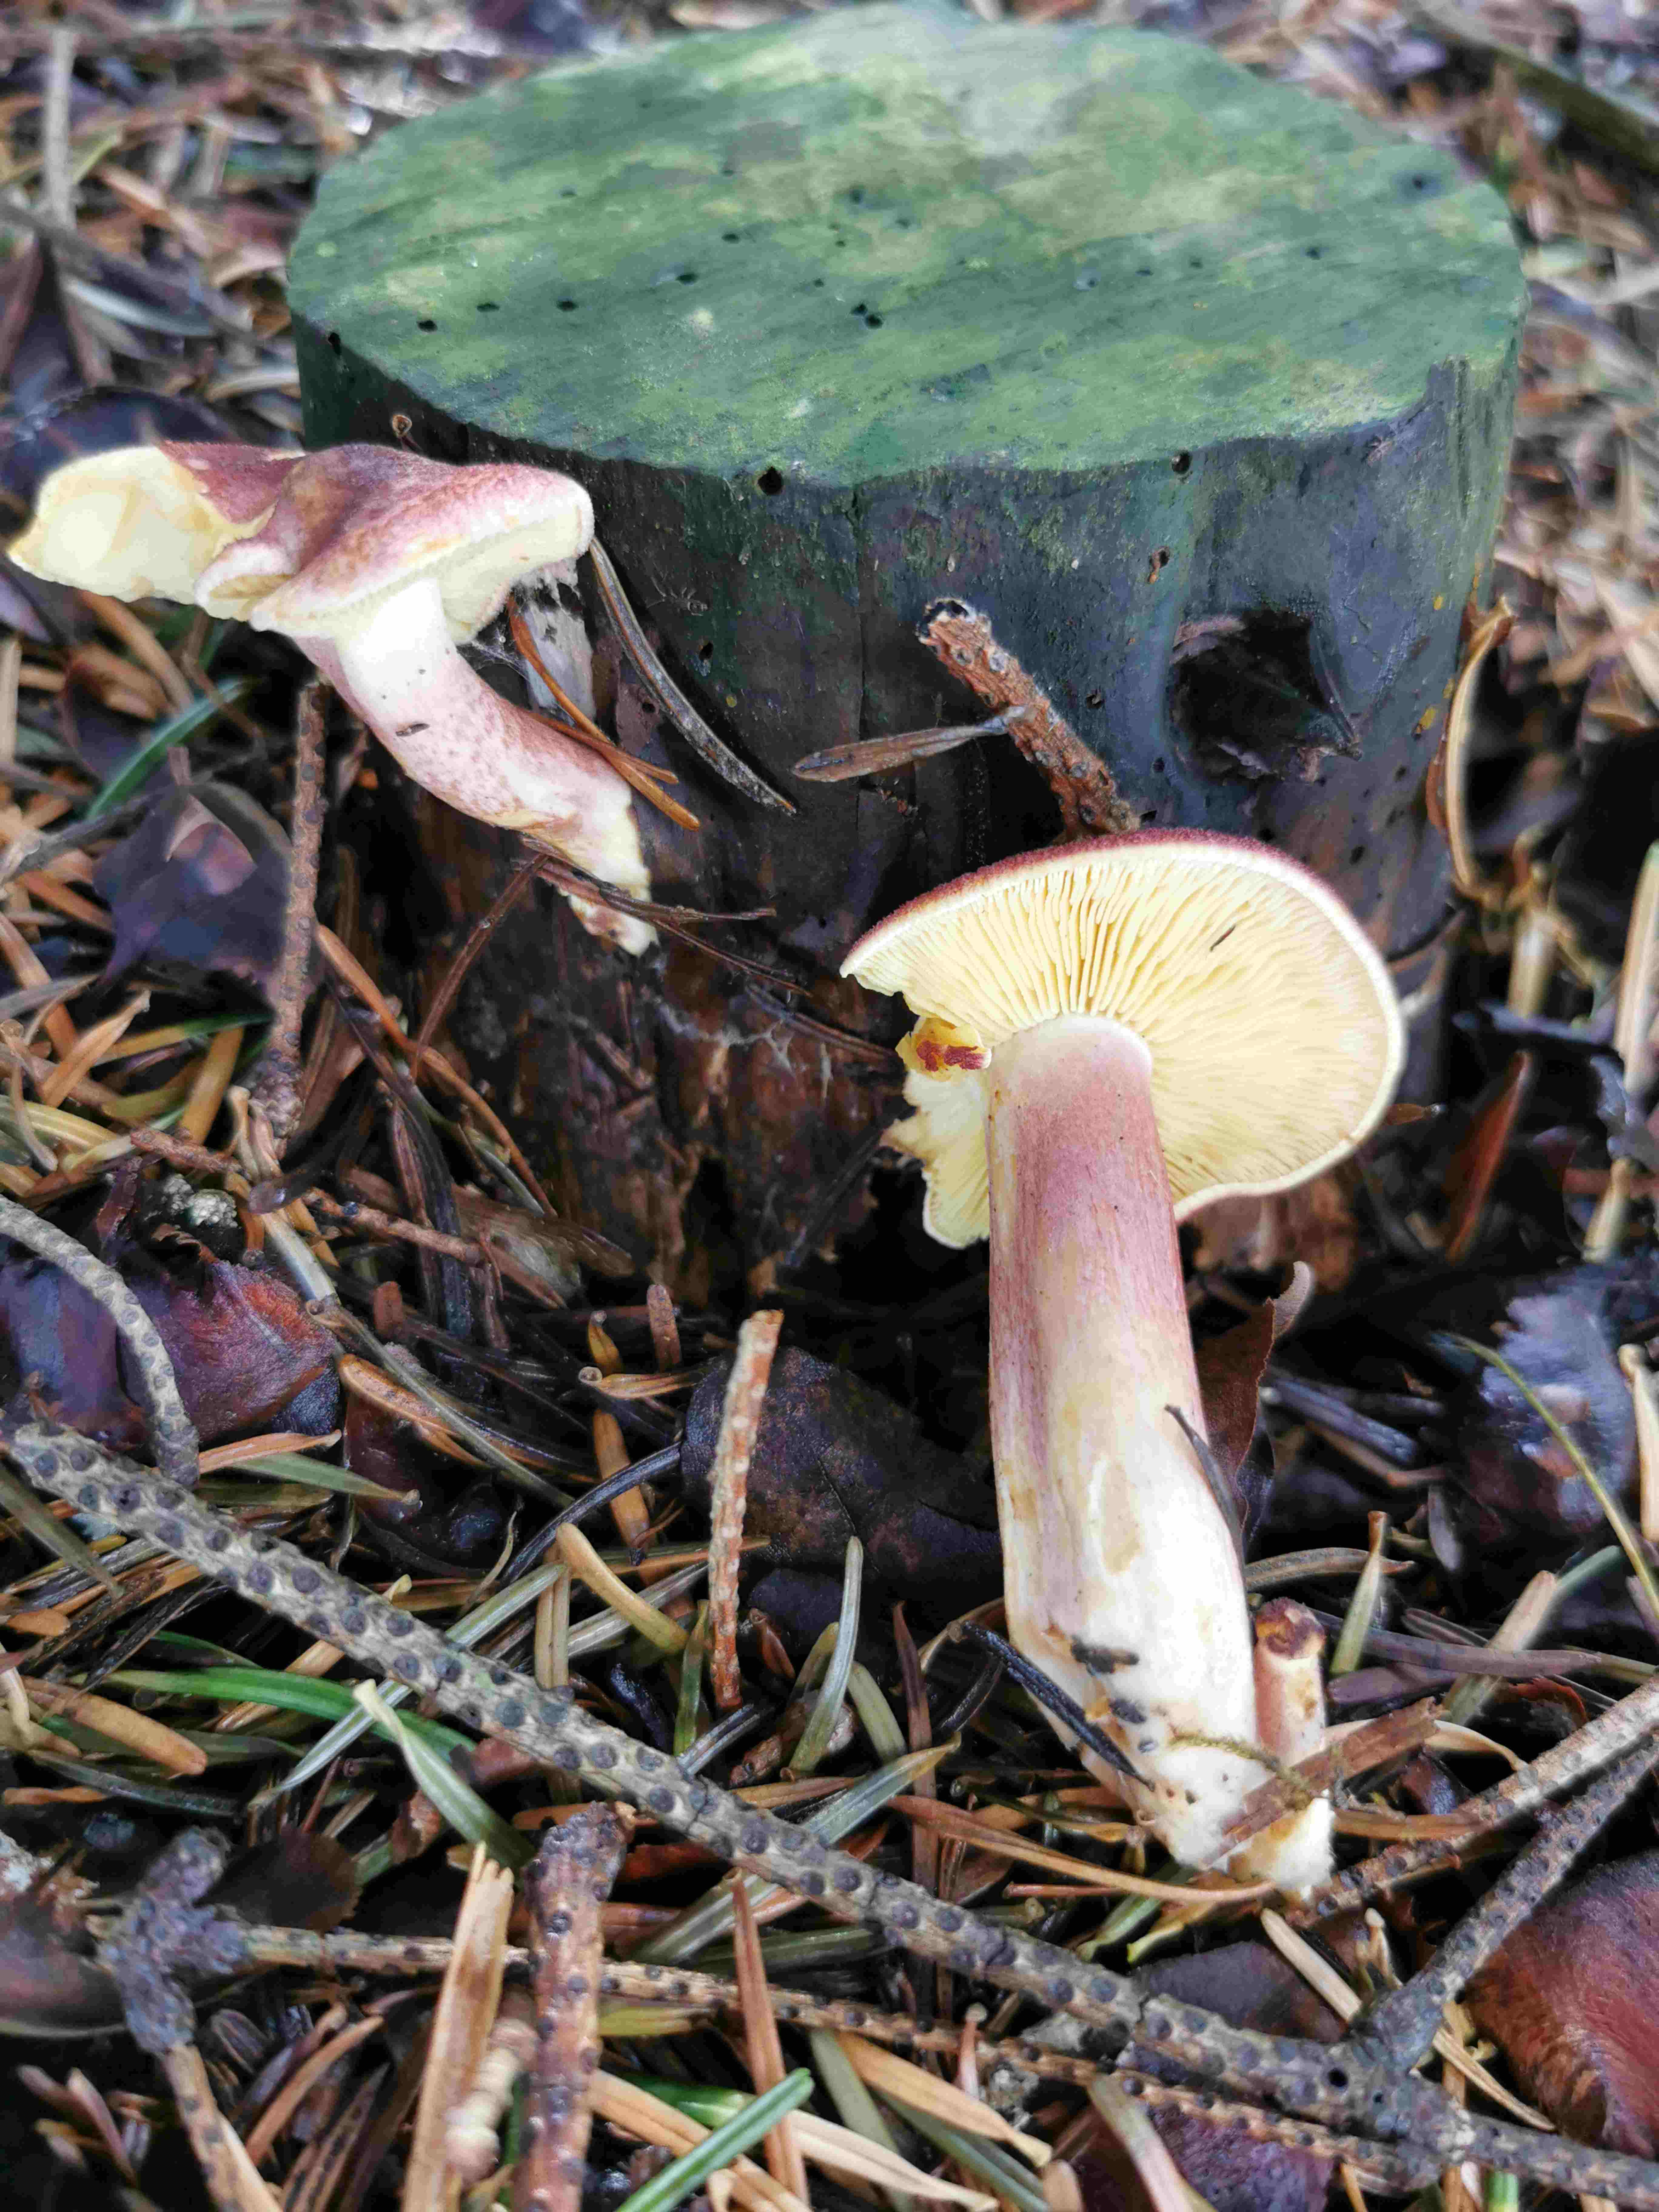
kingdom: Fungi
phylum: Basidiomycota
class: Agaricomycetes
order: Agaricales
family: Tricholomataceae
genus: Tricholomopsis
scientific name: Tricholomopsis rutilans
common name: purpur-væbnerhat
